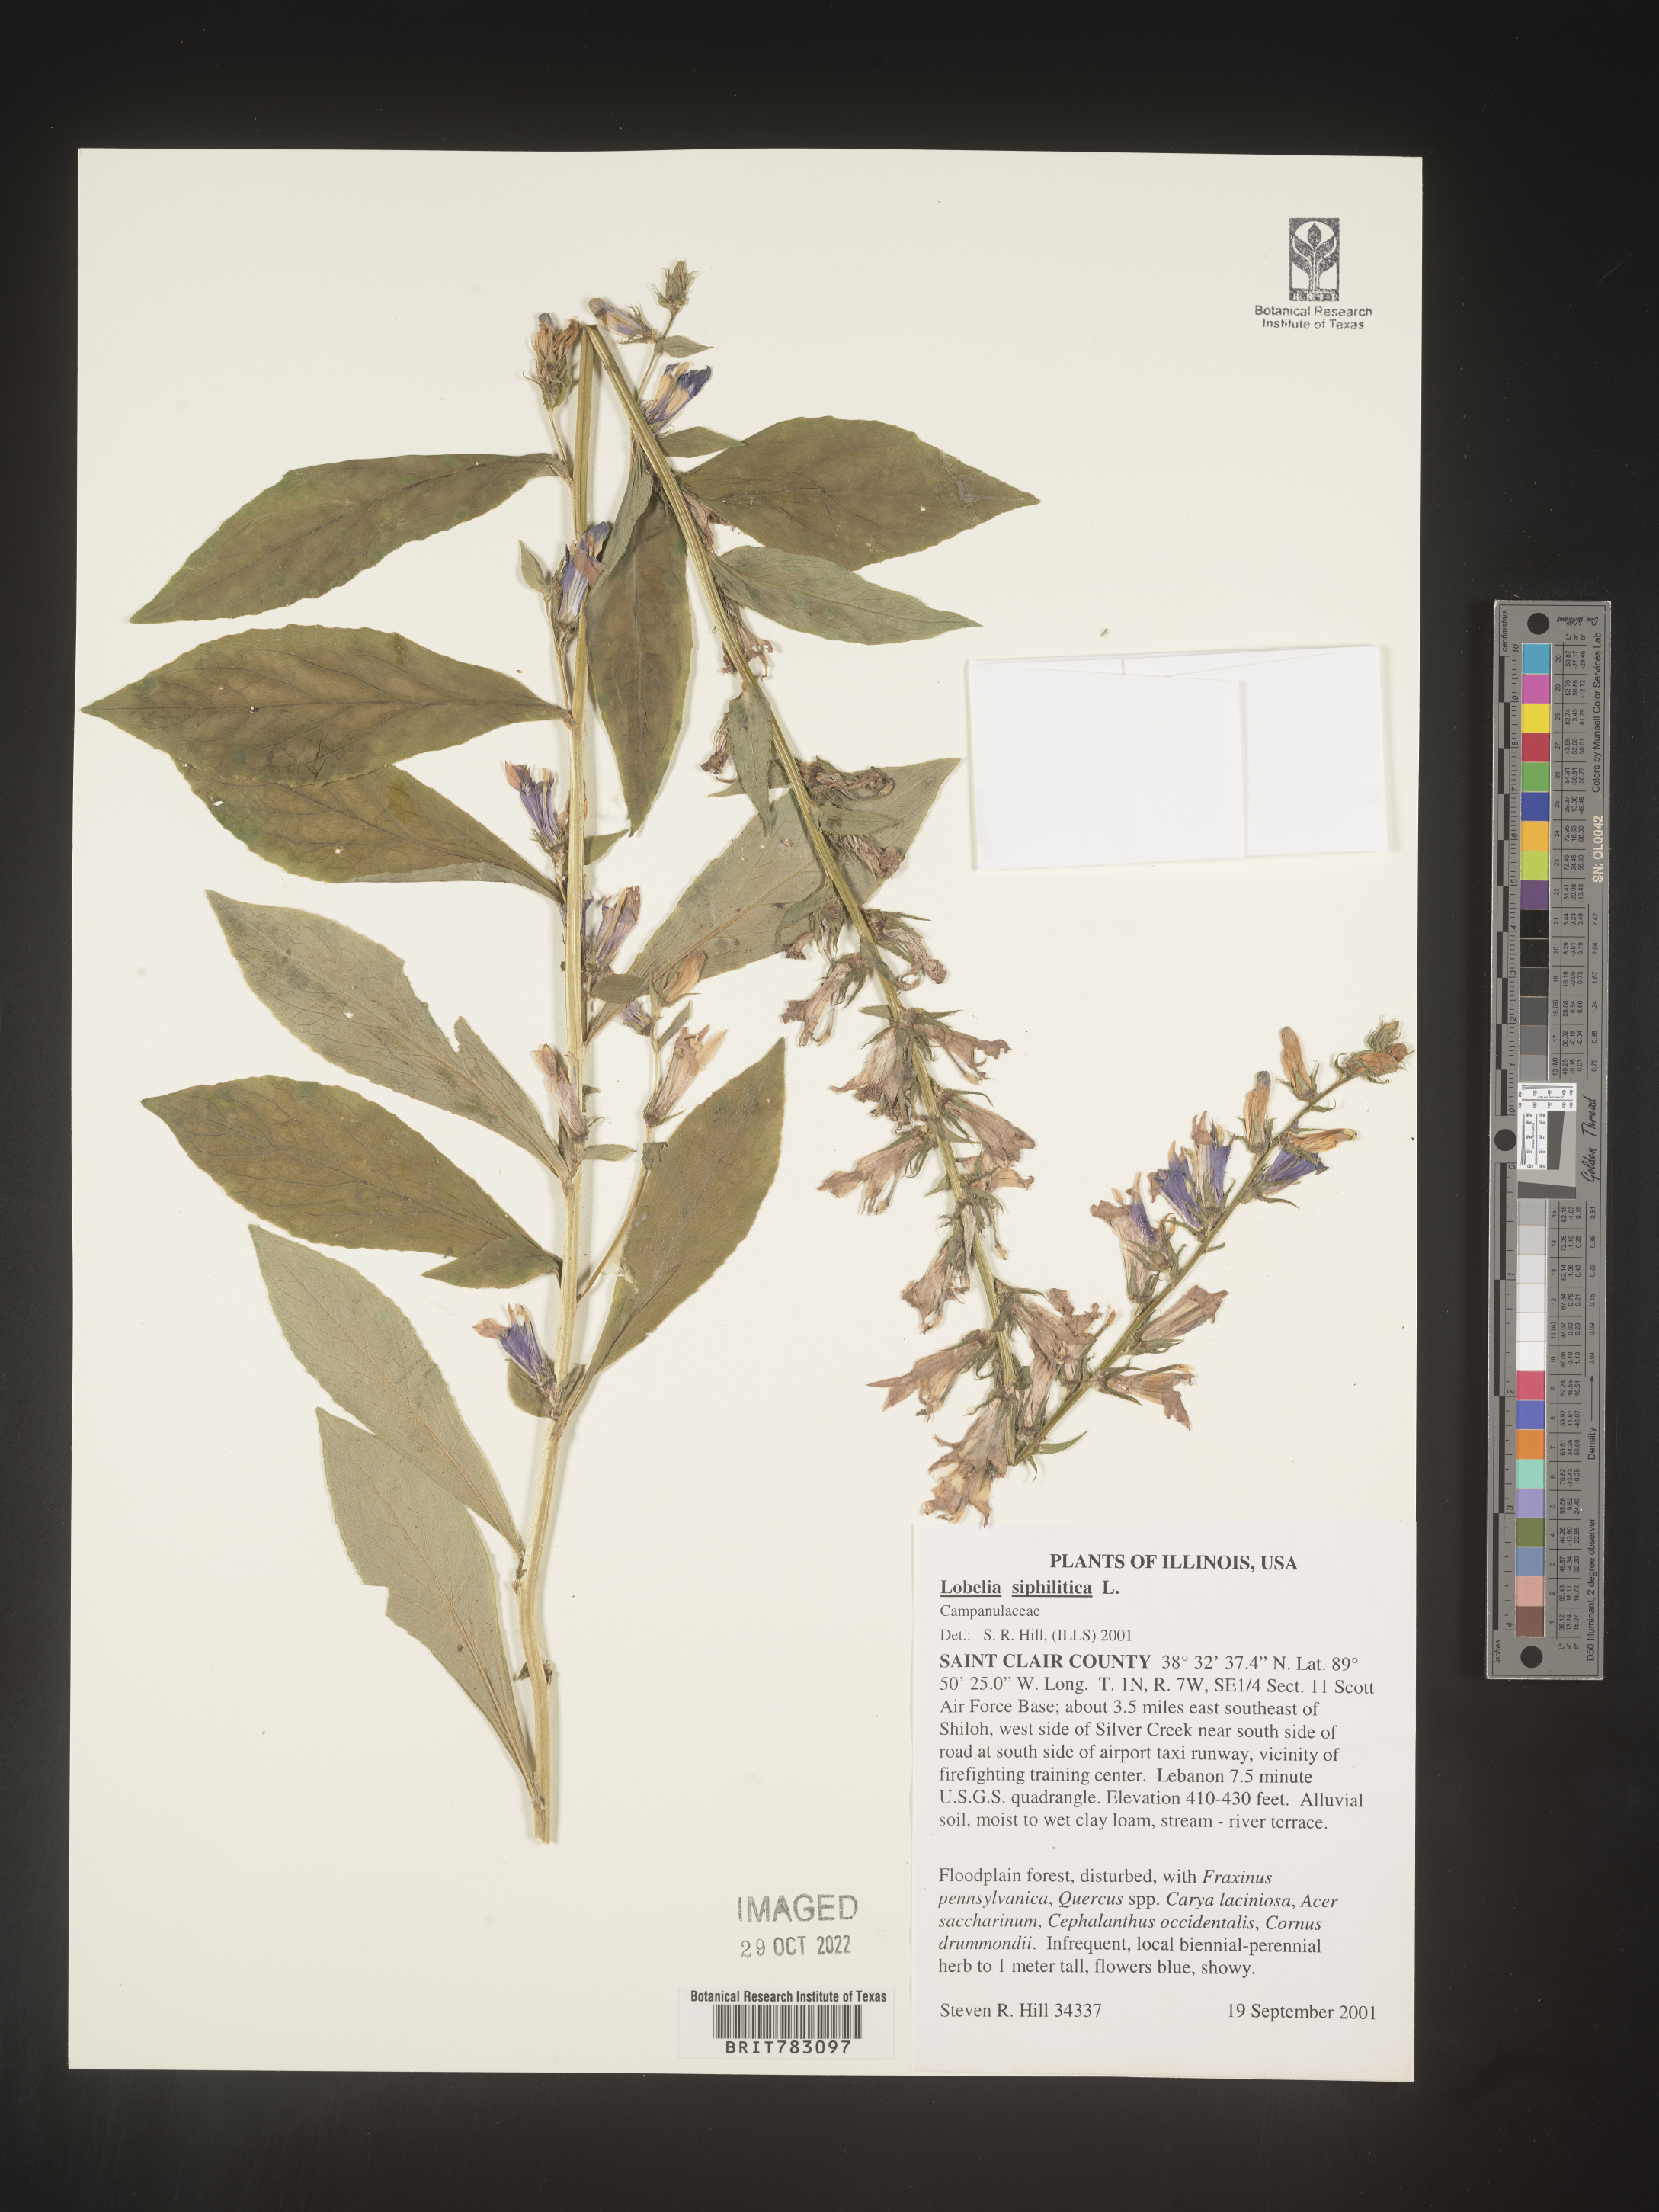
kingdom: Plantae
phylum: Tracheophyta
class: Magnoliopsida
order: Asterales
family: Campanulaceae
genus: Lobelia
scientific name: Lobelia siphilitica
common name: Great lobelia
